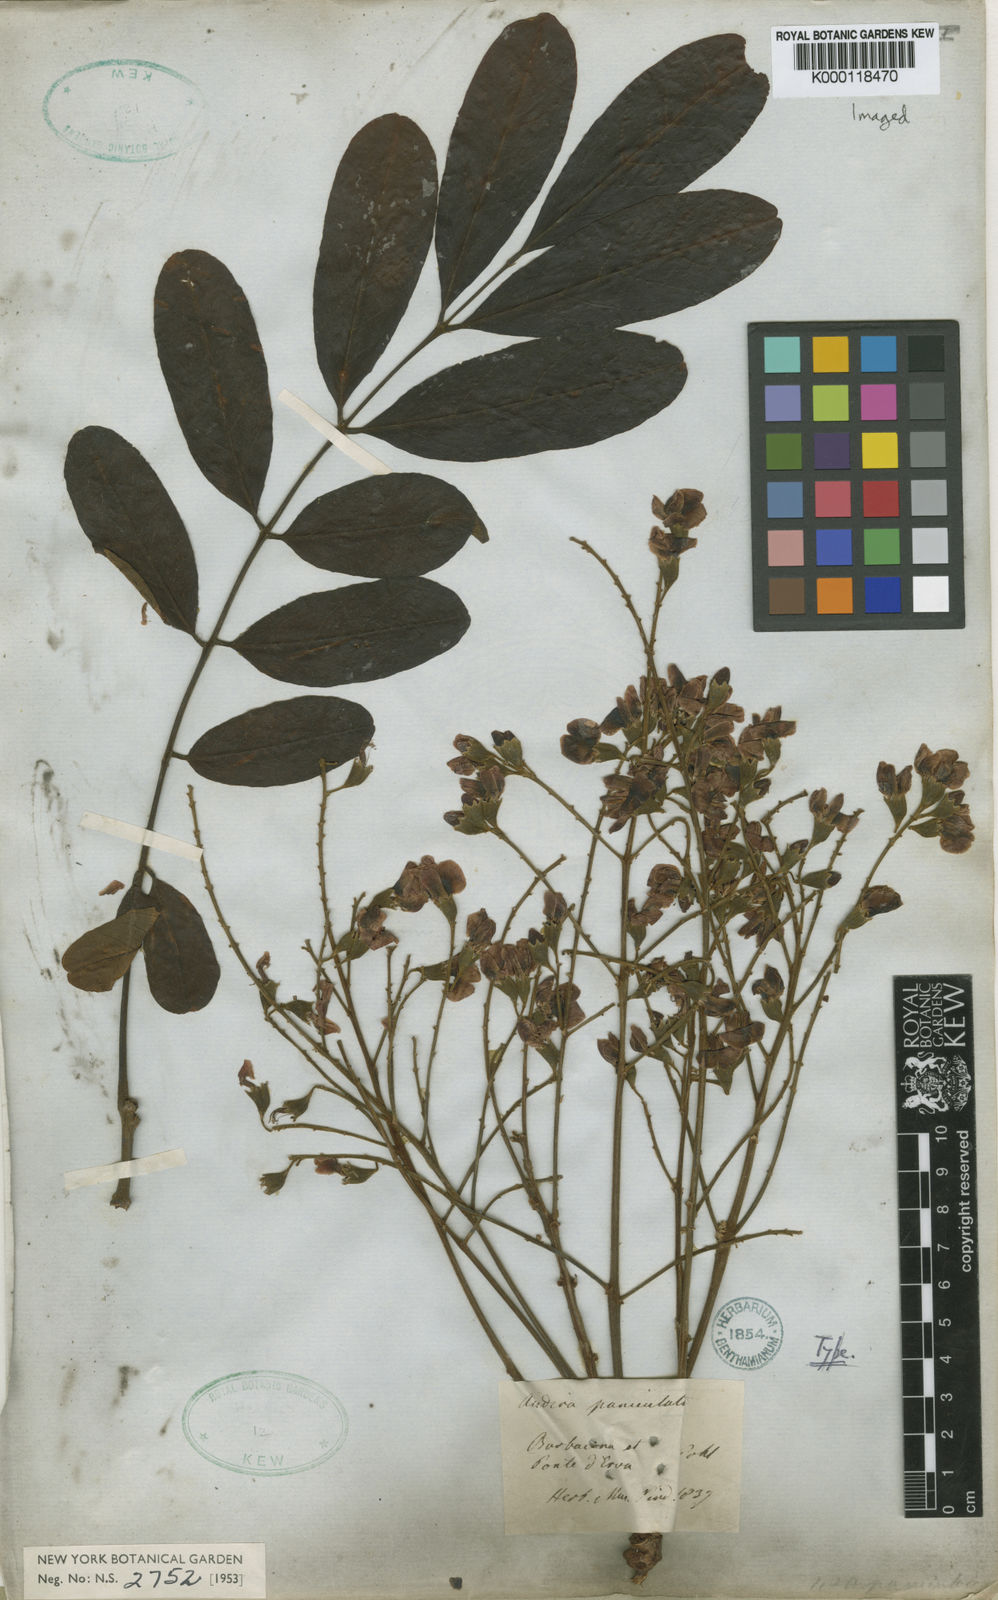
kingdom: Plantae
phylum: Tracheophyta
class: Magnoliopsida
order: Fabales
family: Fabaceae
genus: Andira
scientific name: Andira vermifuga
